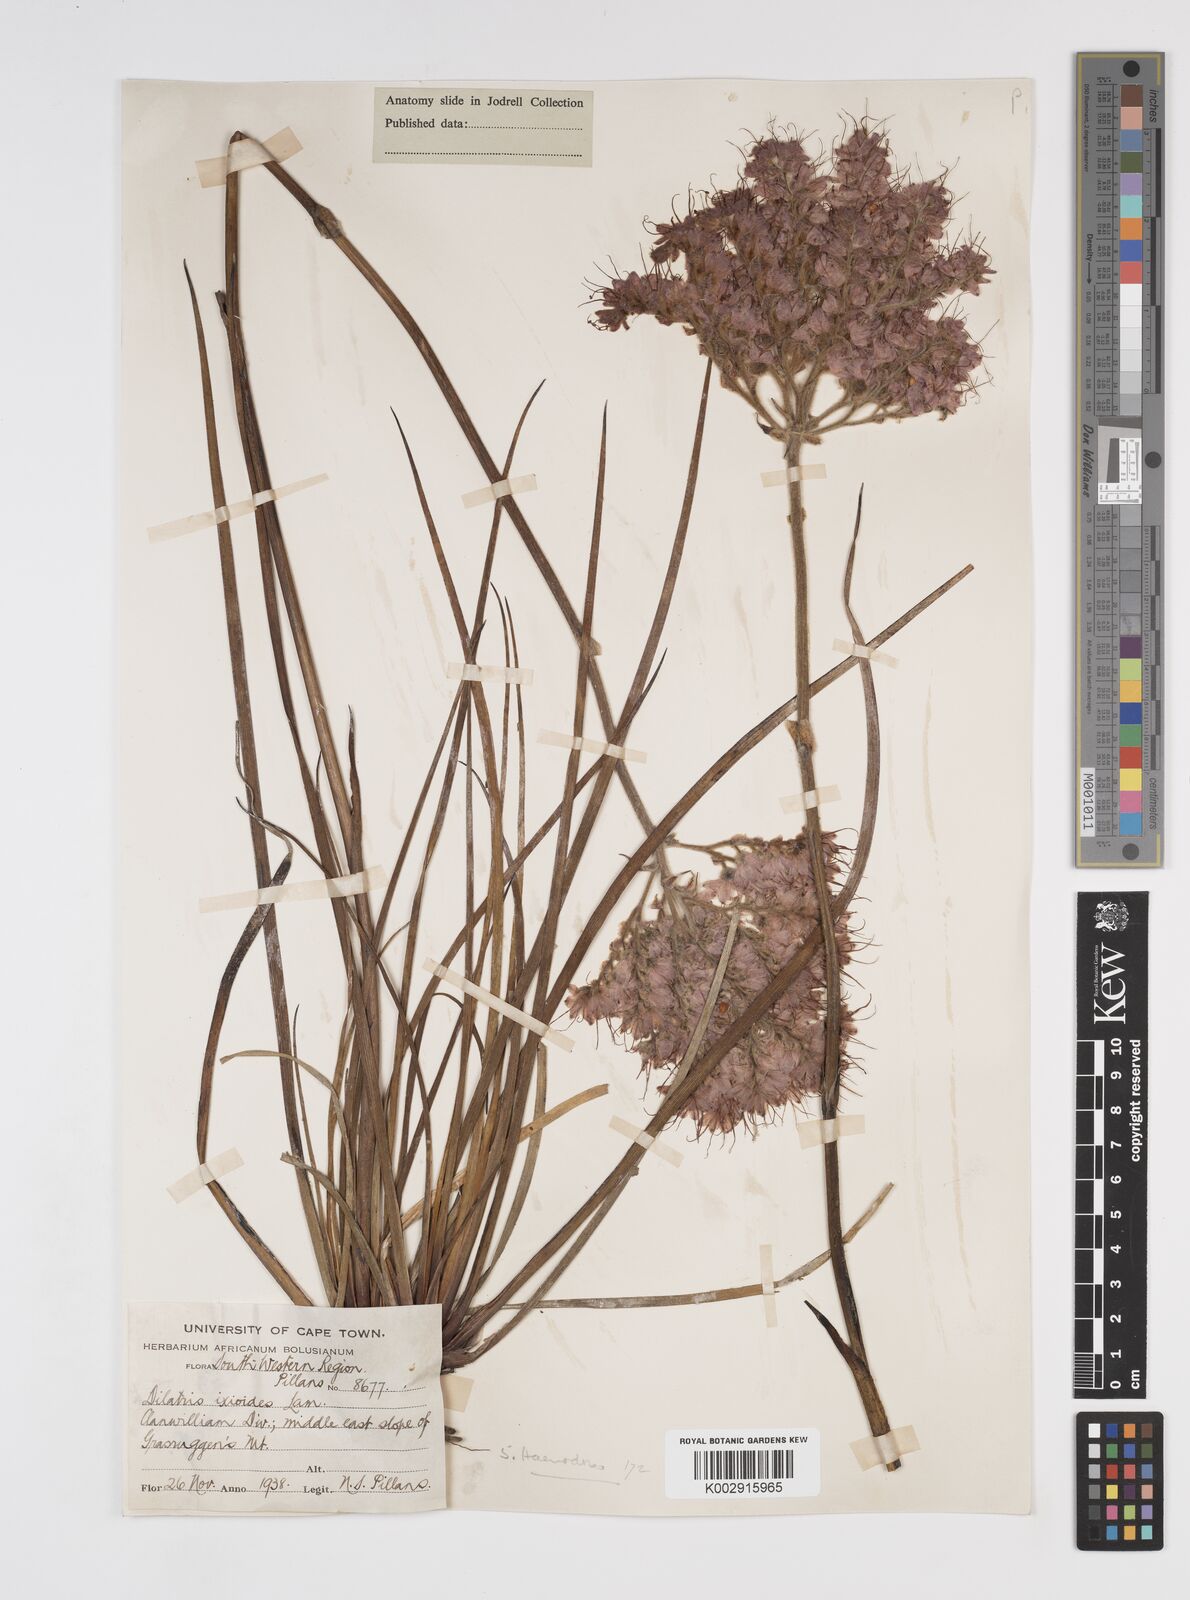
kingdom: Plantae
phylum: Tracheophyta
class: Liliopsida
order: Commelinales
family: Haemodoraceae
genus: Dilatris
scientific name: Dilatris ixioides
